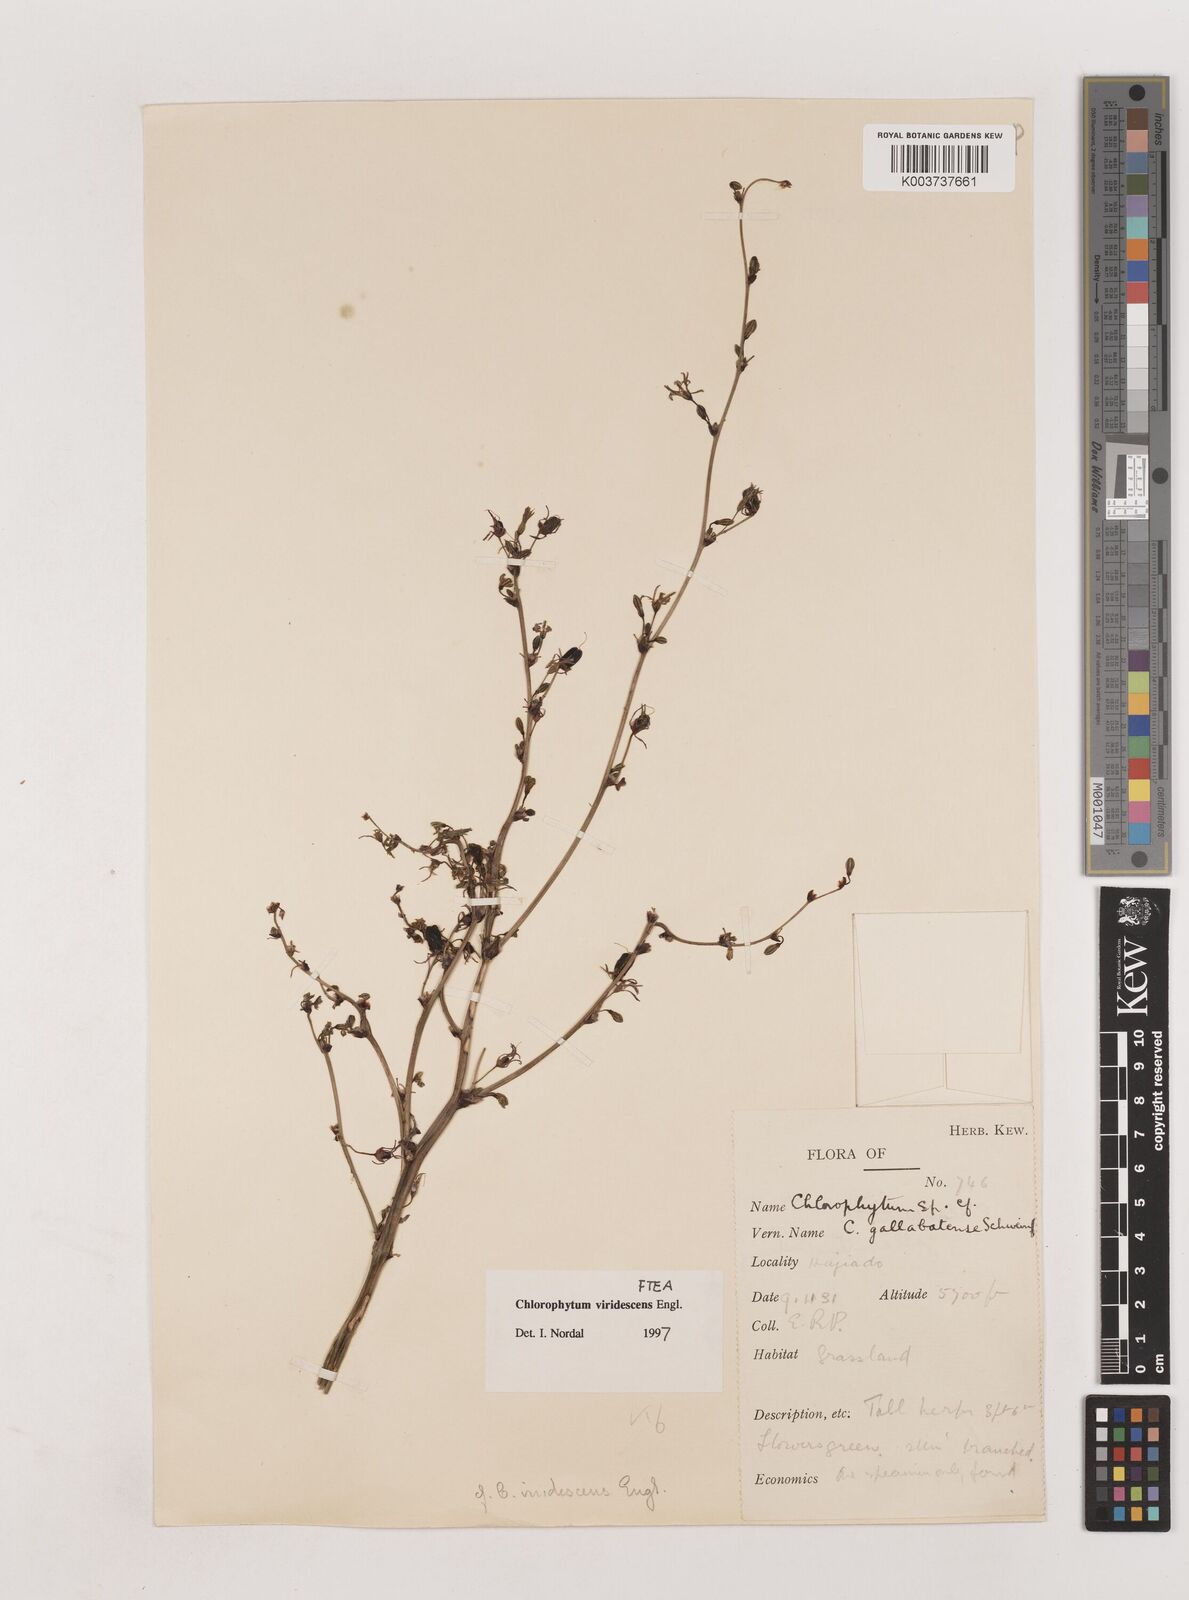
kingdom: Plantae
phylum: Tracheophyta
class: Liliopsida
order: Asparagales
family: Asparagaceae
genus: Chlorophytum
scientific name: Chlorophytum viridescens
